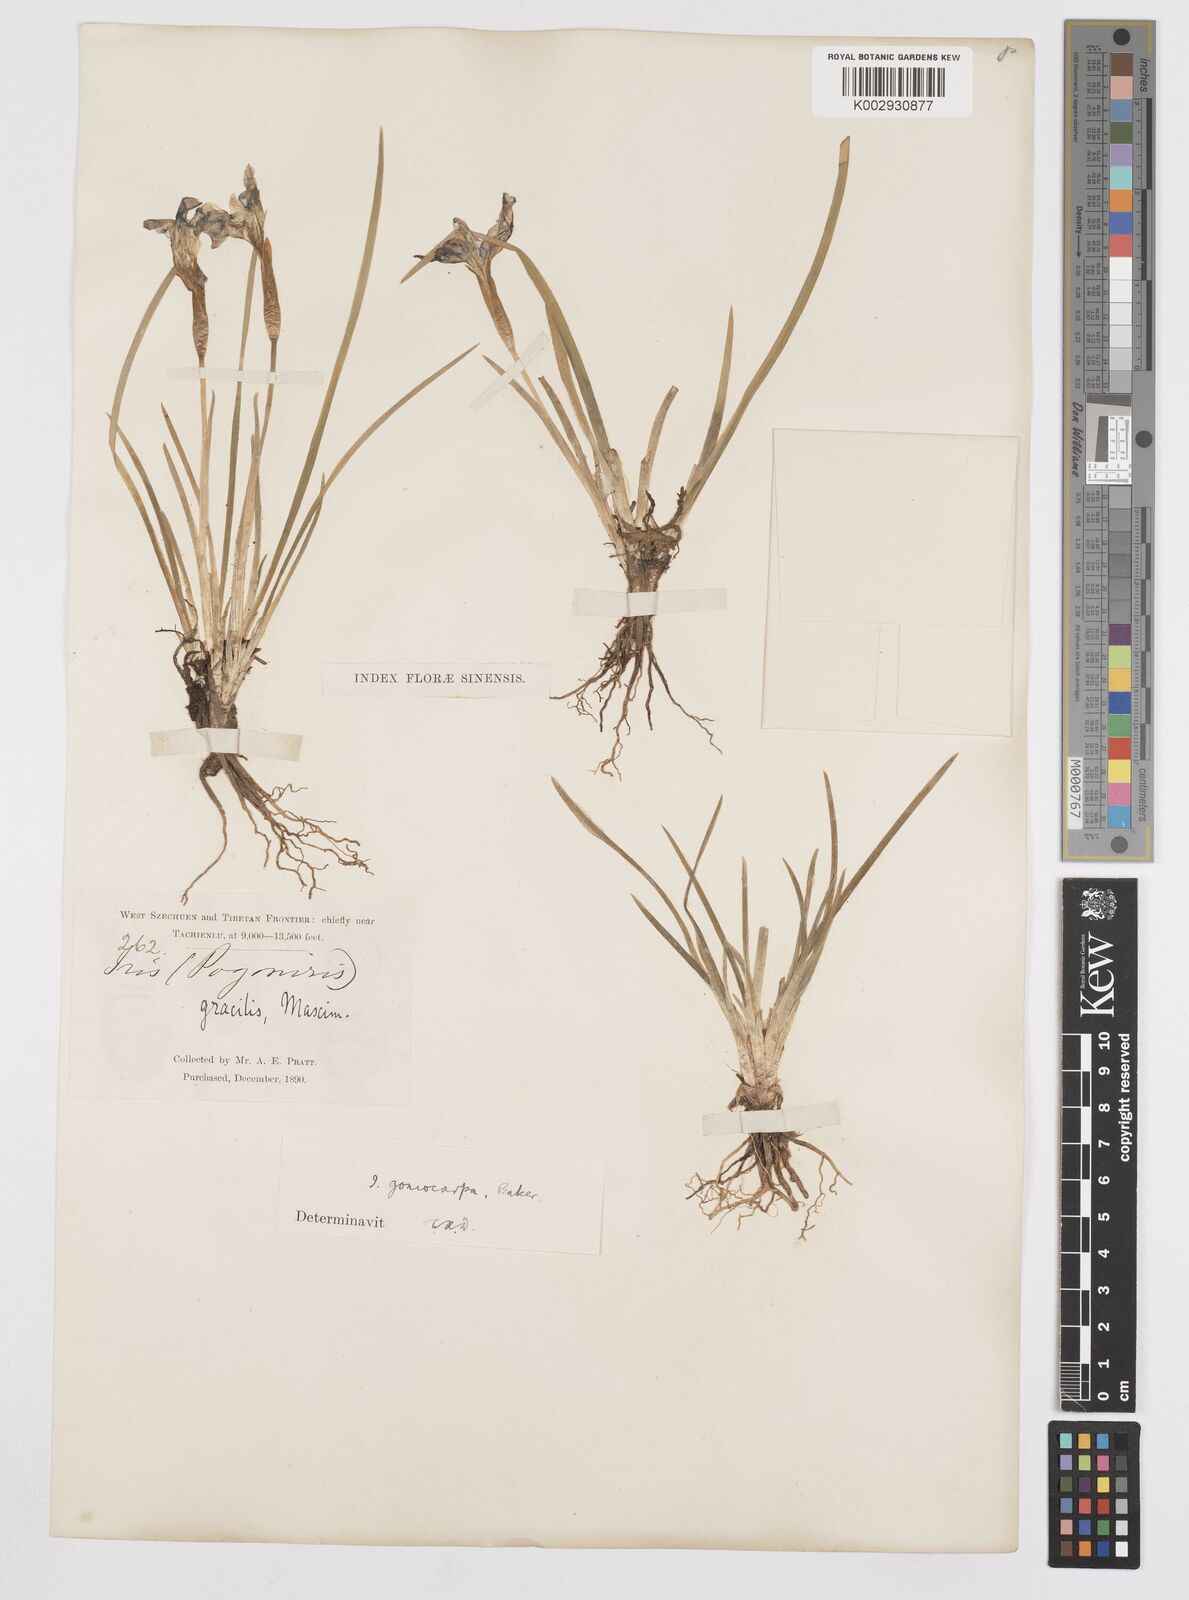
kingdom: Plantae
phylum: Tracheophyta
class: Liliopsida
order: Asparagales
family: Iridaceae
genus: Iris
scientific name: Iris goniocarpa
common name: Angular-fruit iris
